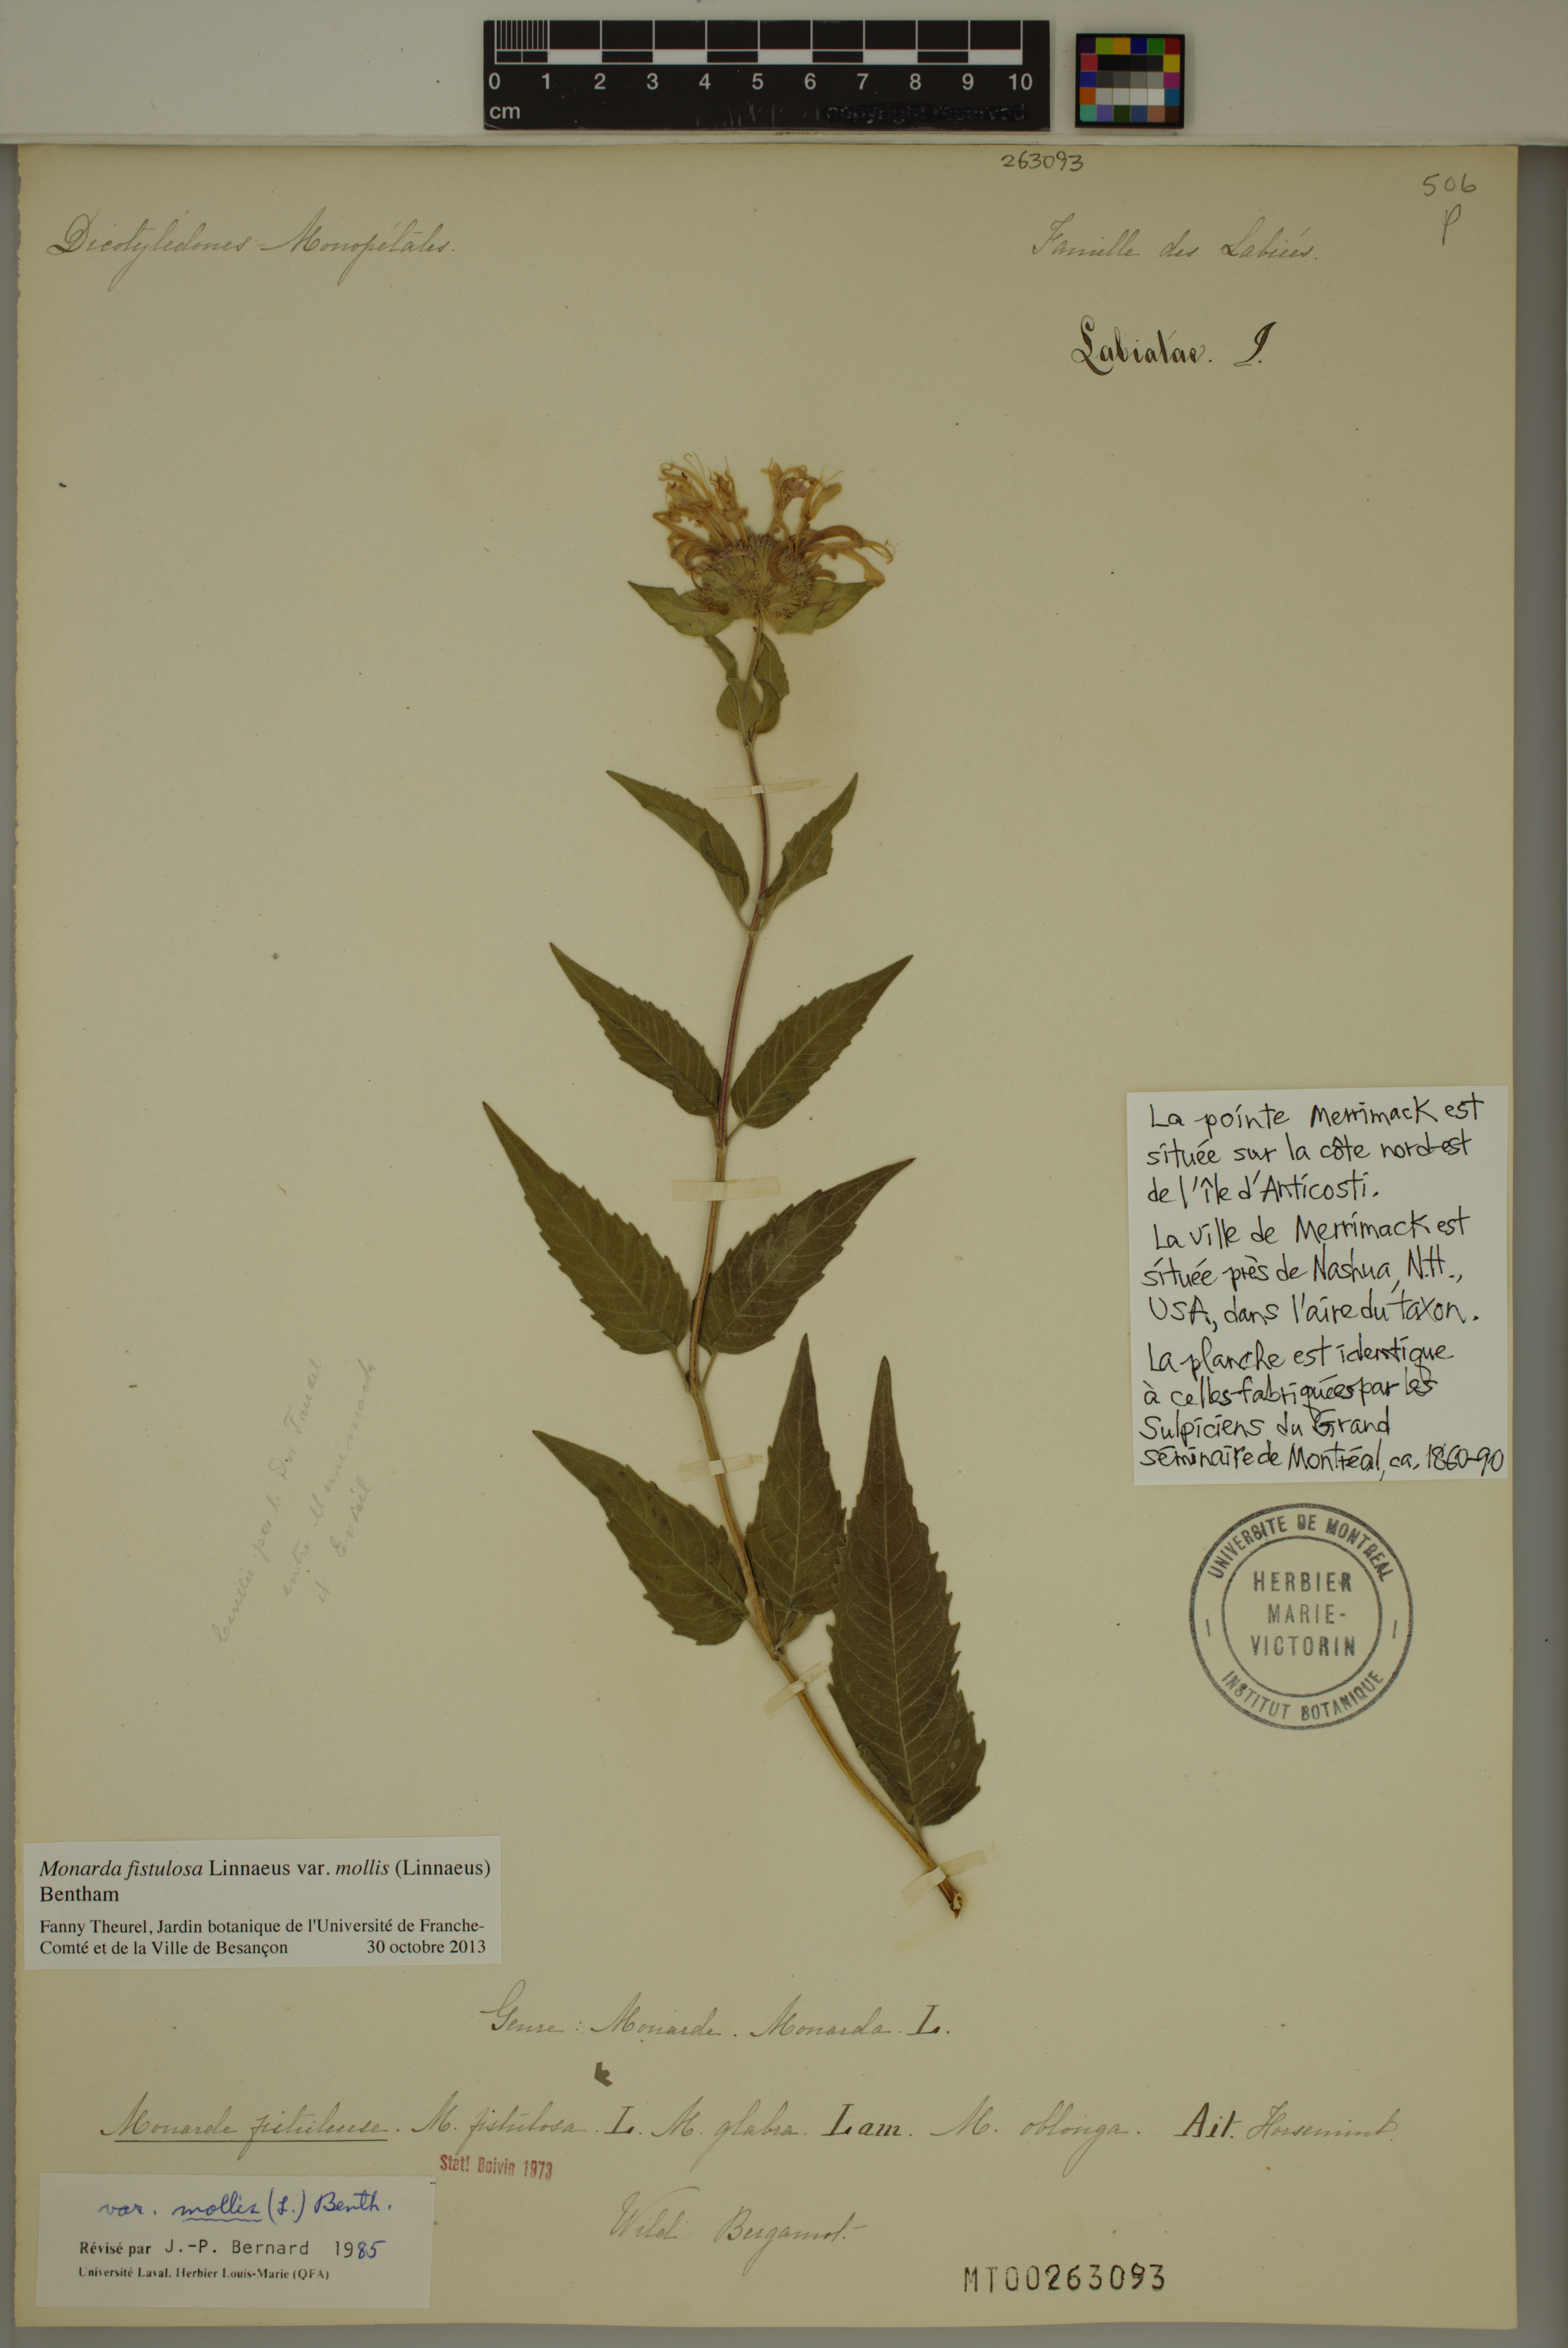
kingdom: Plantae
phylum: Tracheophyta
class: Magnoliopsida
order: Lamiales
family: Lamiaceae
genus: Monarda
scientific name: Monarda fistulosa
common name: Purple beebalm
